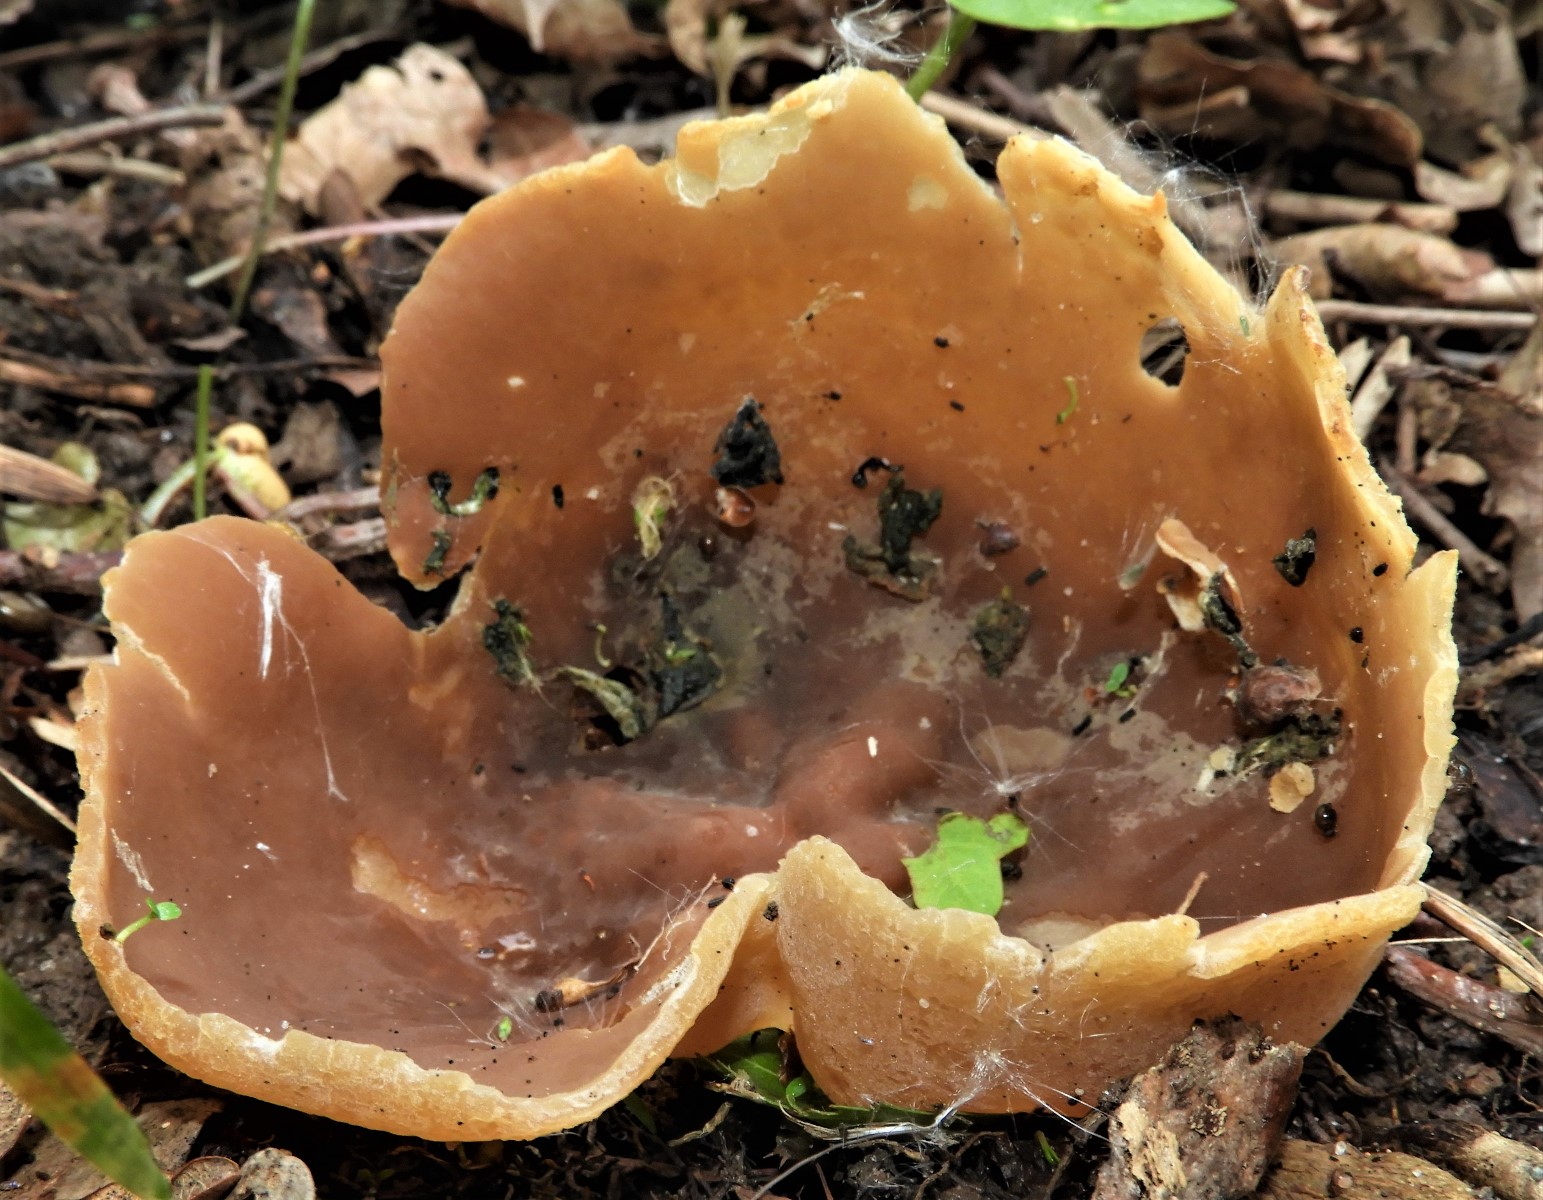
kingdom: Fungi
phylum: Ascomycota
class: Pezizomycetes
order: Pezizales
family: Pezizaceae
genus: Peziza
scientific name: Peziza
